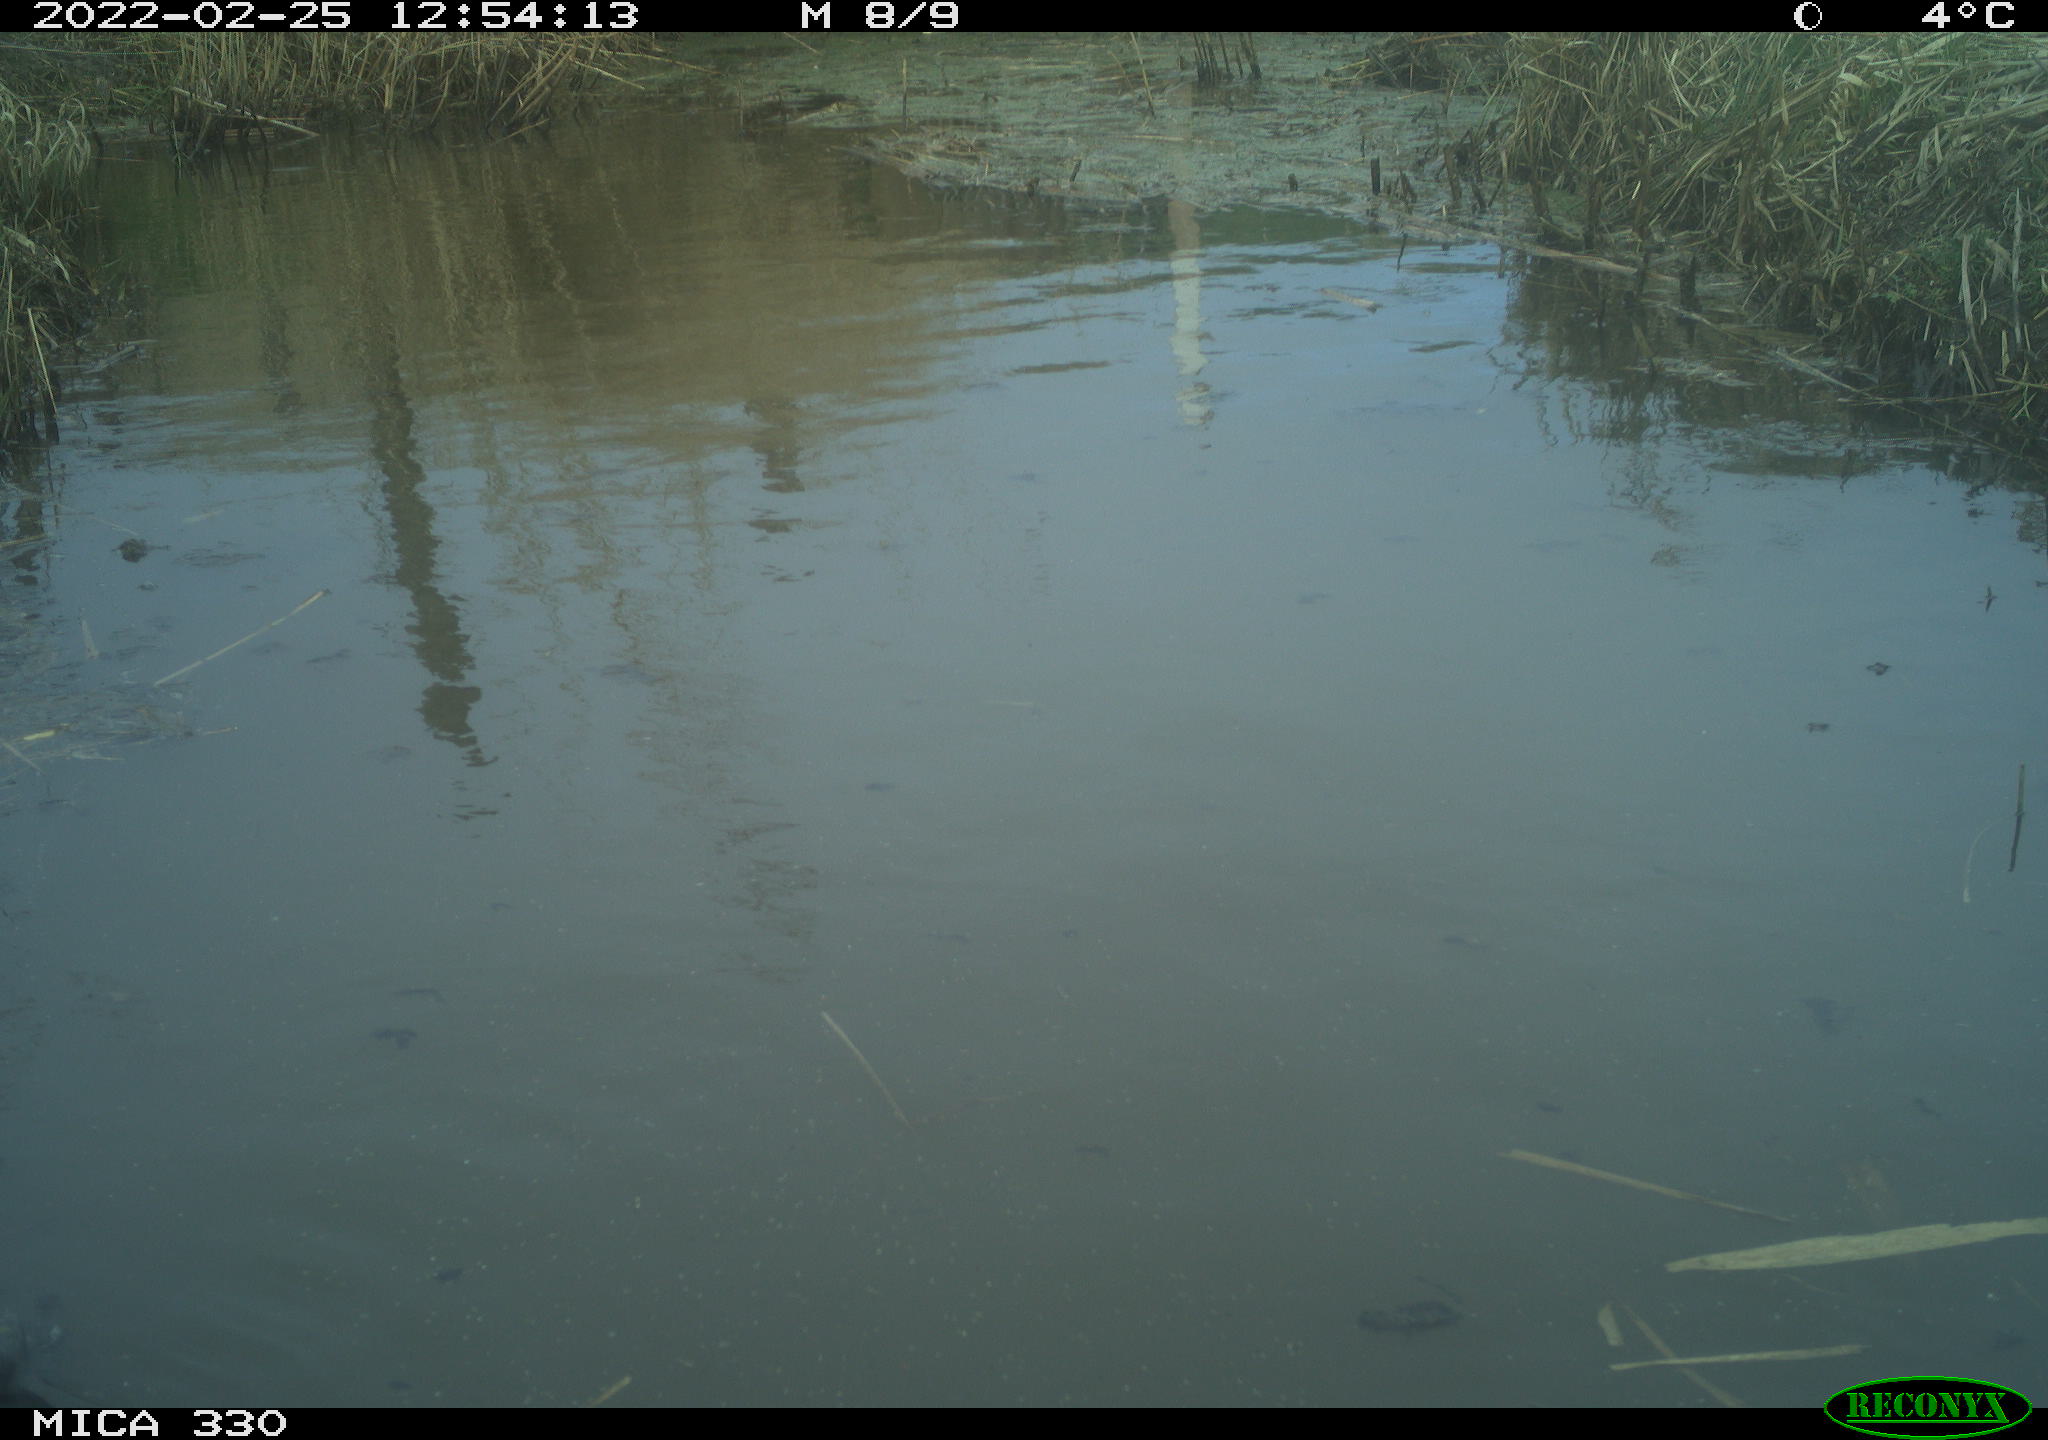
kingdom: Animalia
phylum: Chordata
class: Aves
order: Gruiformes
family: Rallidae
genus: Fulica
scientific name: Fulica atra
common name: Eurasian coot
